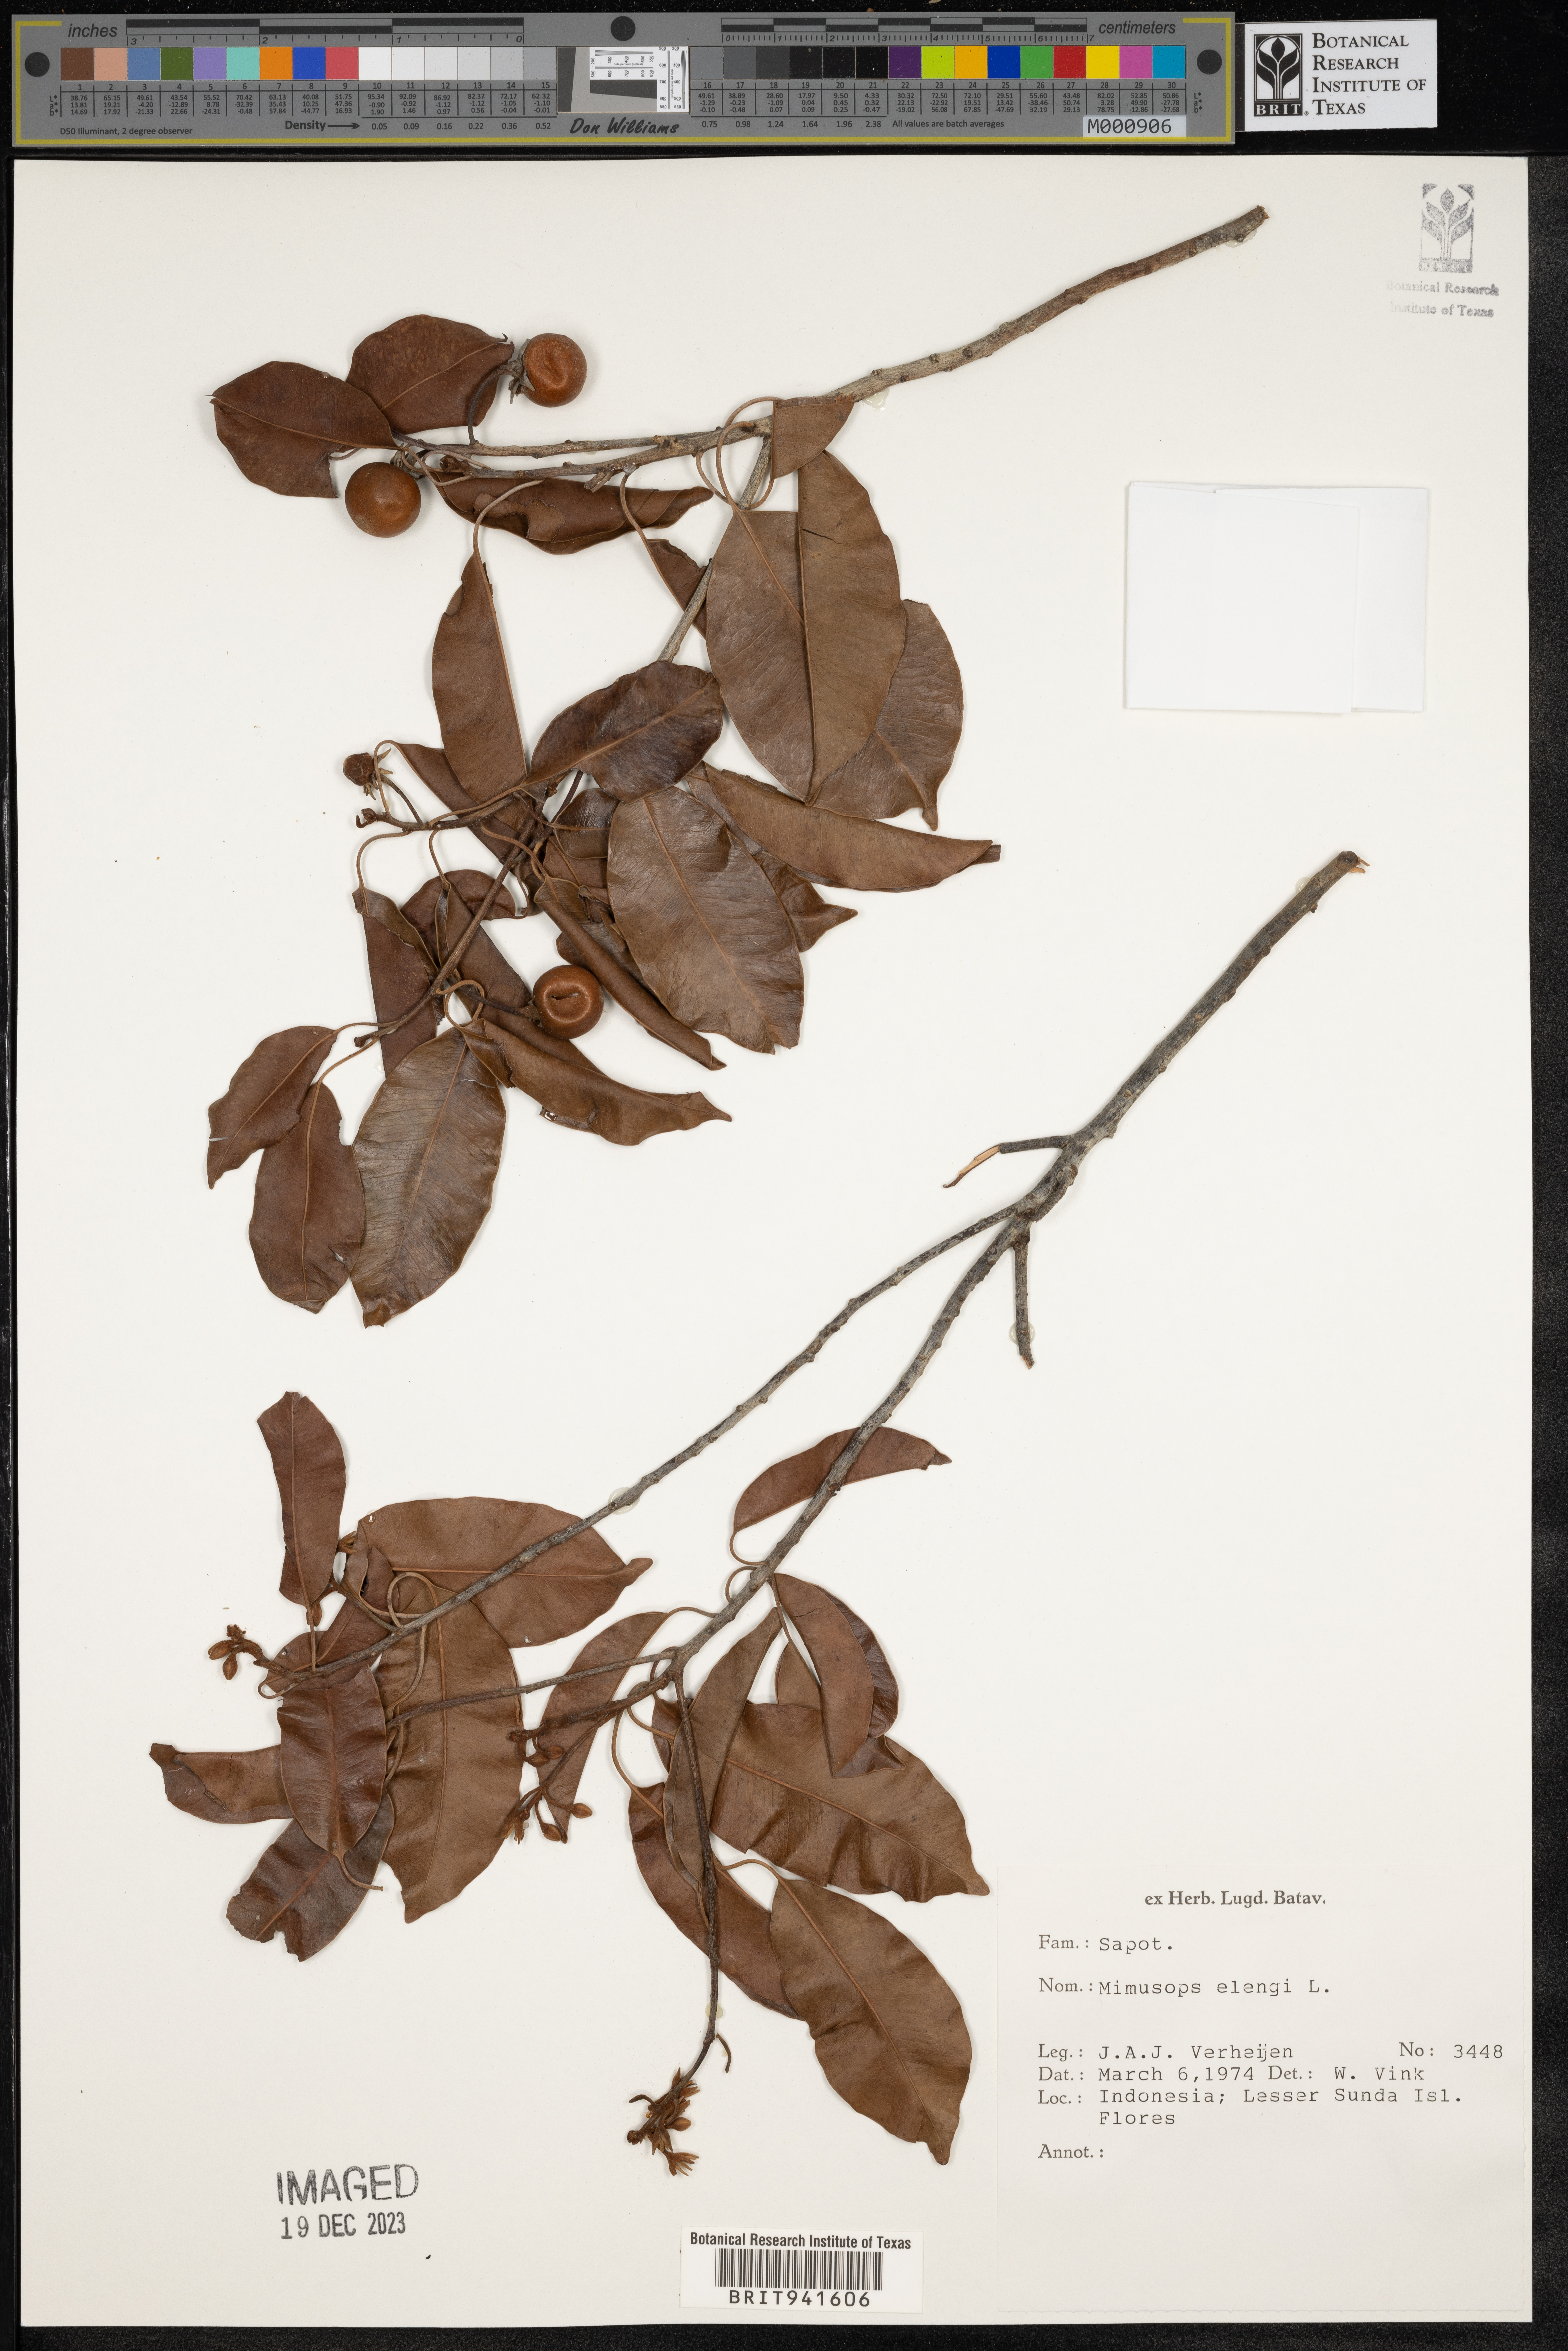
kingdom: Plantae
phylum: Tracheophyta
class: Magnoliopsida
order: Ericales
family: Sapotaceae
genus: Mimusops
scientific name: Mimusops
